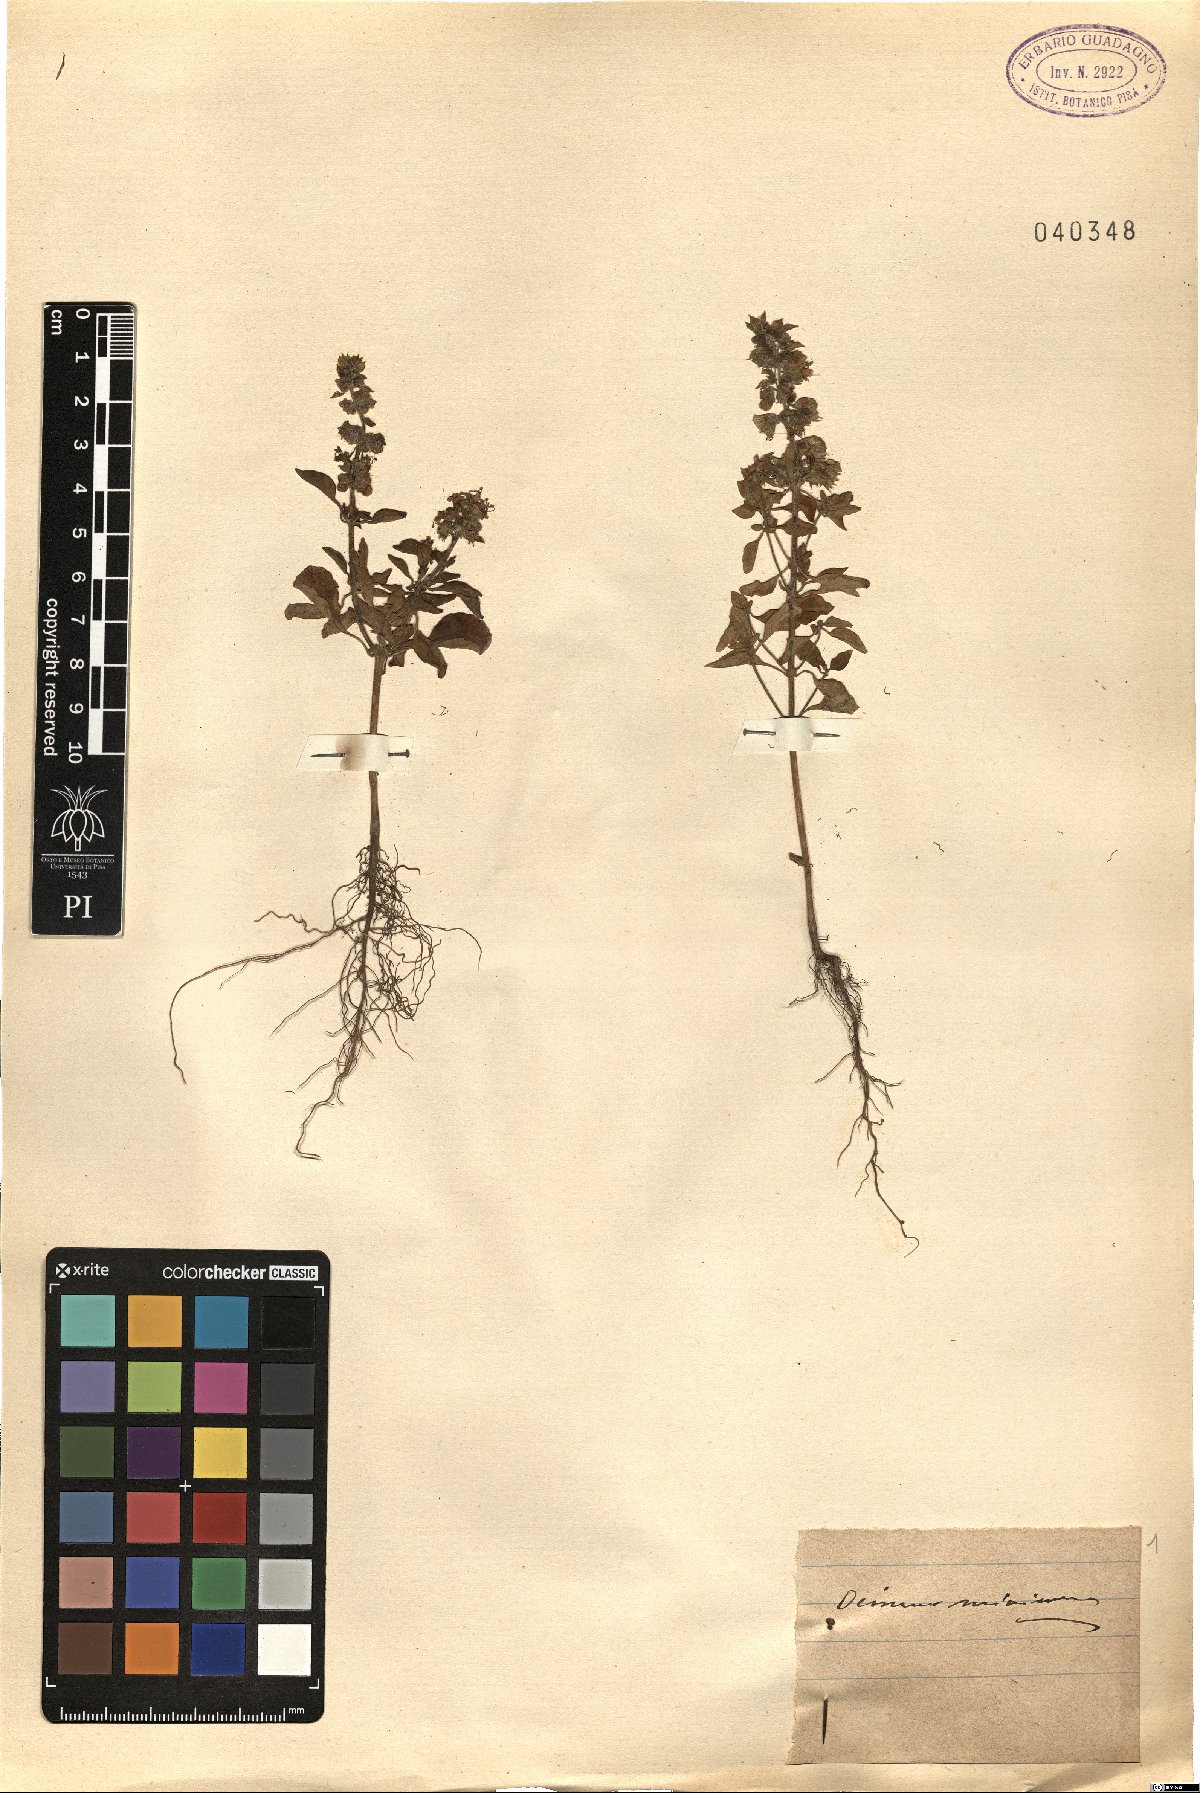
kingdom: Plantae
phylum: Tracheophyta
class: Magnoliopsida
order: Lamiales
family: Lamiaceae
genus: Ocimum
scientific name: Ocimum basilicum
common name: Sweet basil
